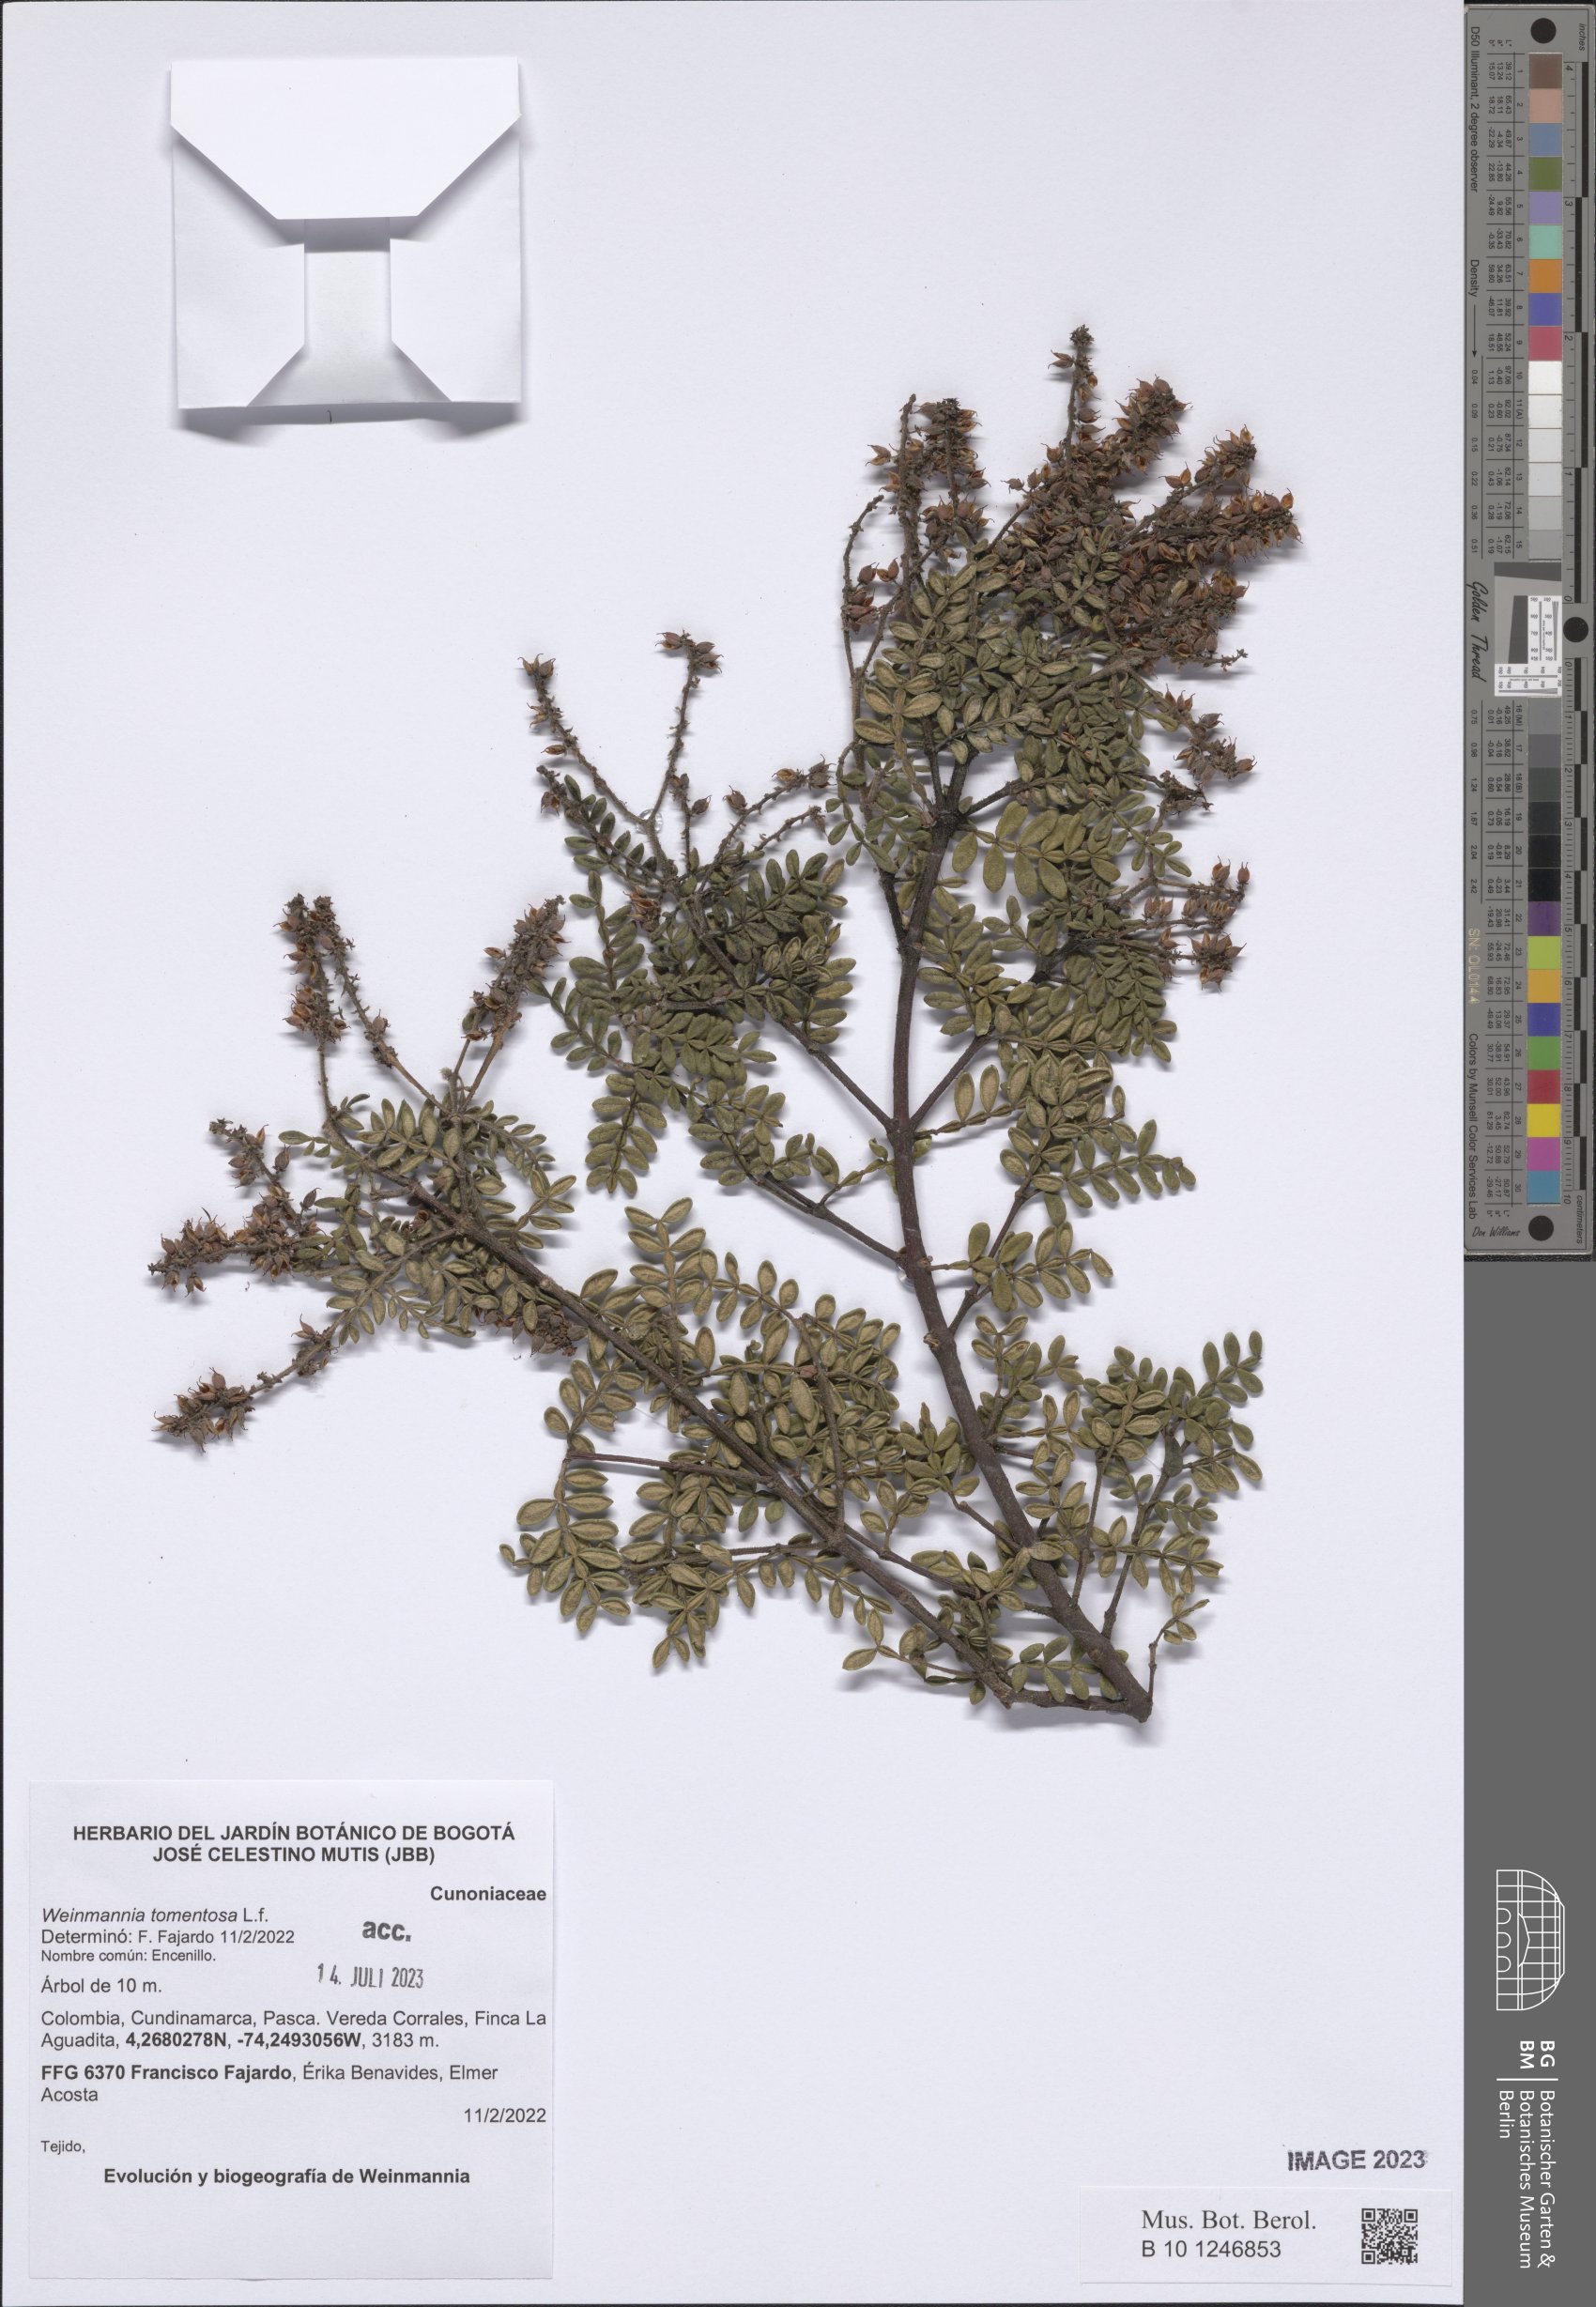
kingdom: Plantae
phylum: Tracheophyta
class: Magnoliopsida
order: Oxalidales
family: Cunoniaceae
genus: Weinmannia
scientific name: Weinmannia tomentosa
